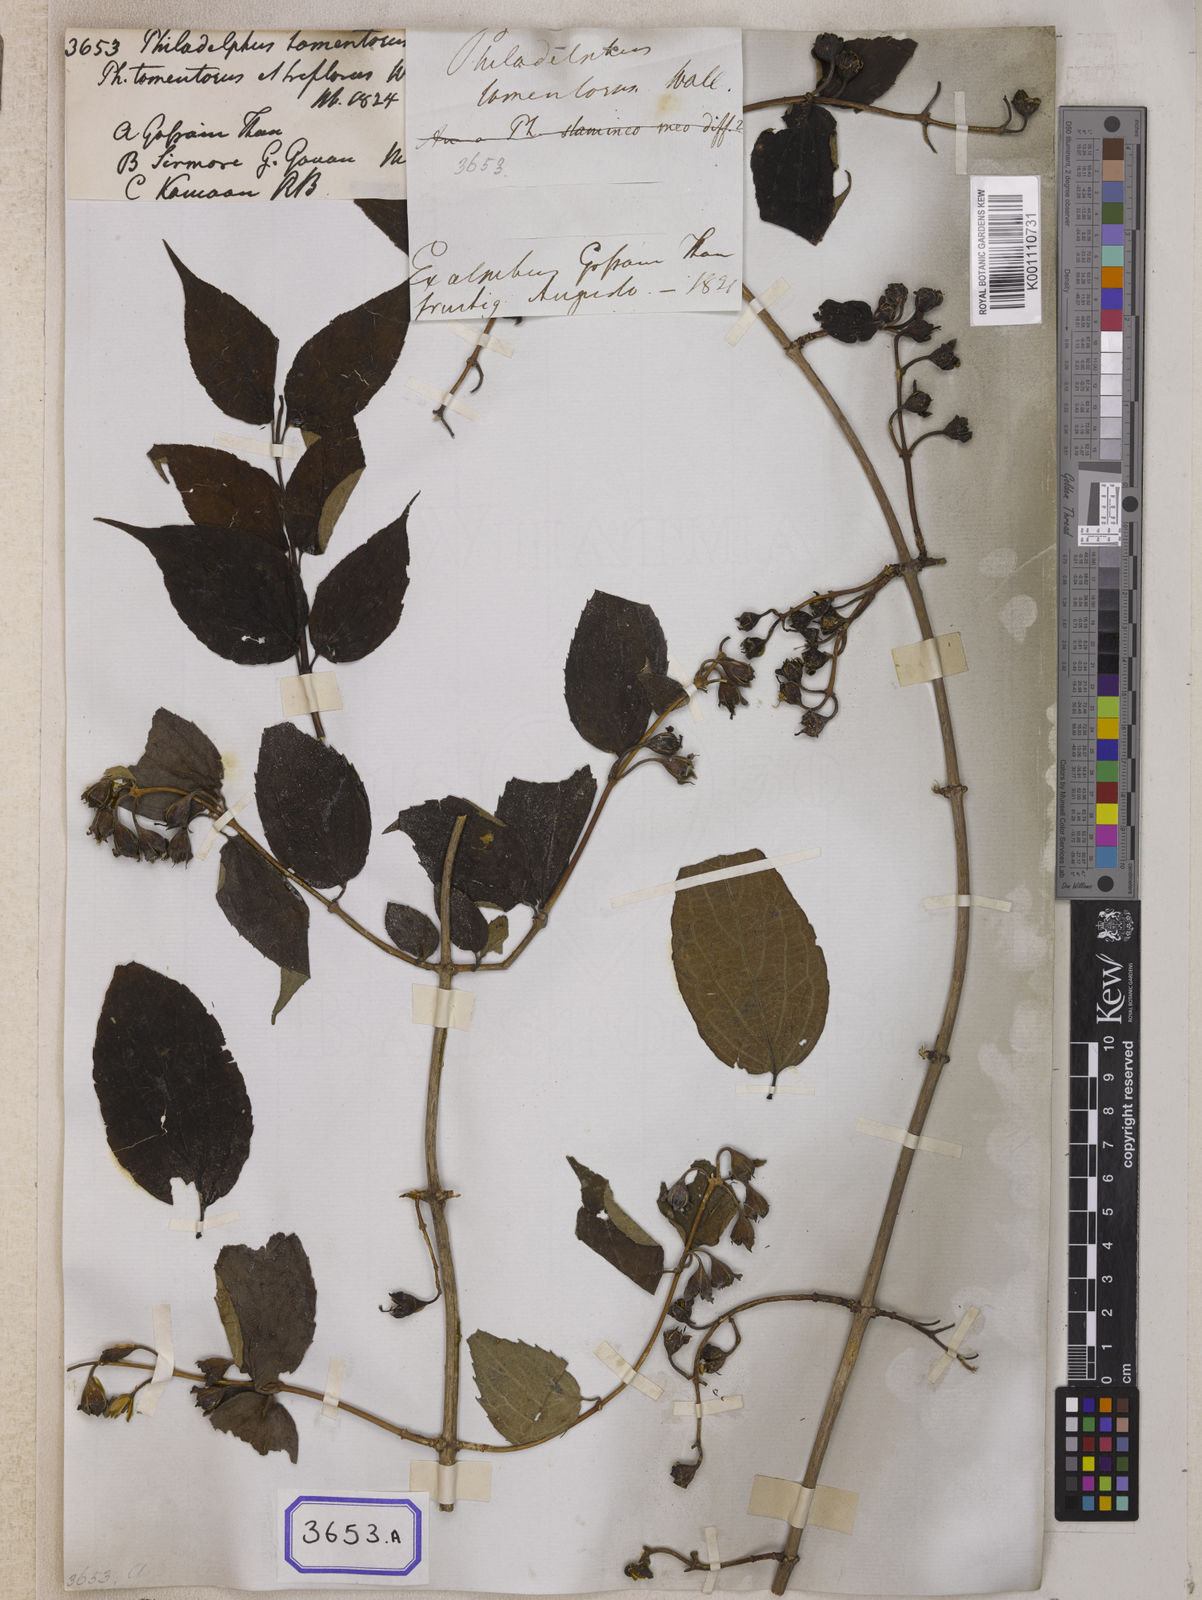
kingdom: Plantae
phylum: Tracheophyta
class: Magnoliopsida
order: Cornales
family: Hydrangeaceae
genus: Philadelphus
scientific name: Philadelphus
